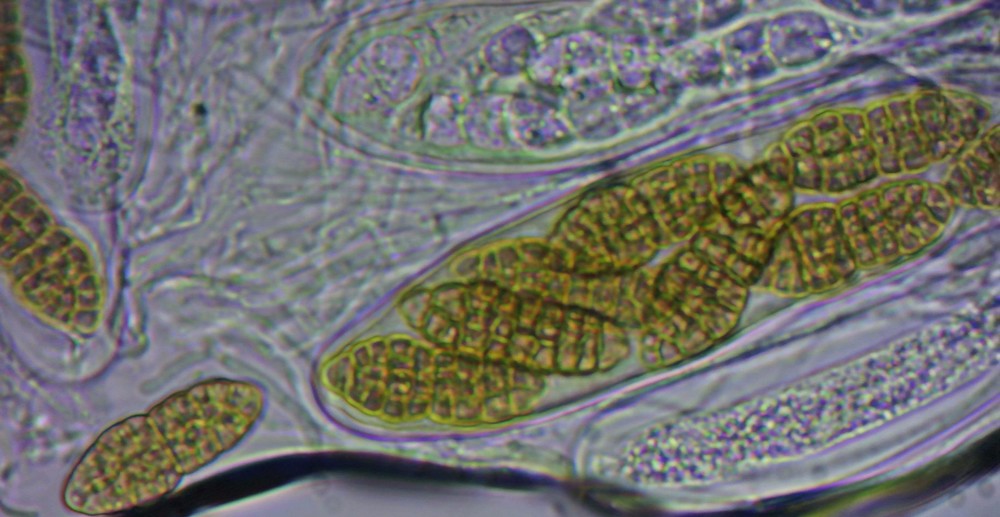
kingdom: Fungi
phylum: Ascomycota
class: Dothideomycetes
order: Pleosporales
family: Amniculicolaceae
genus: Murispora
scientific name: Murispora rubicunda ter
